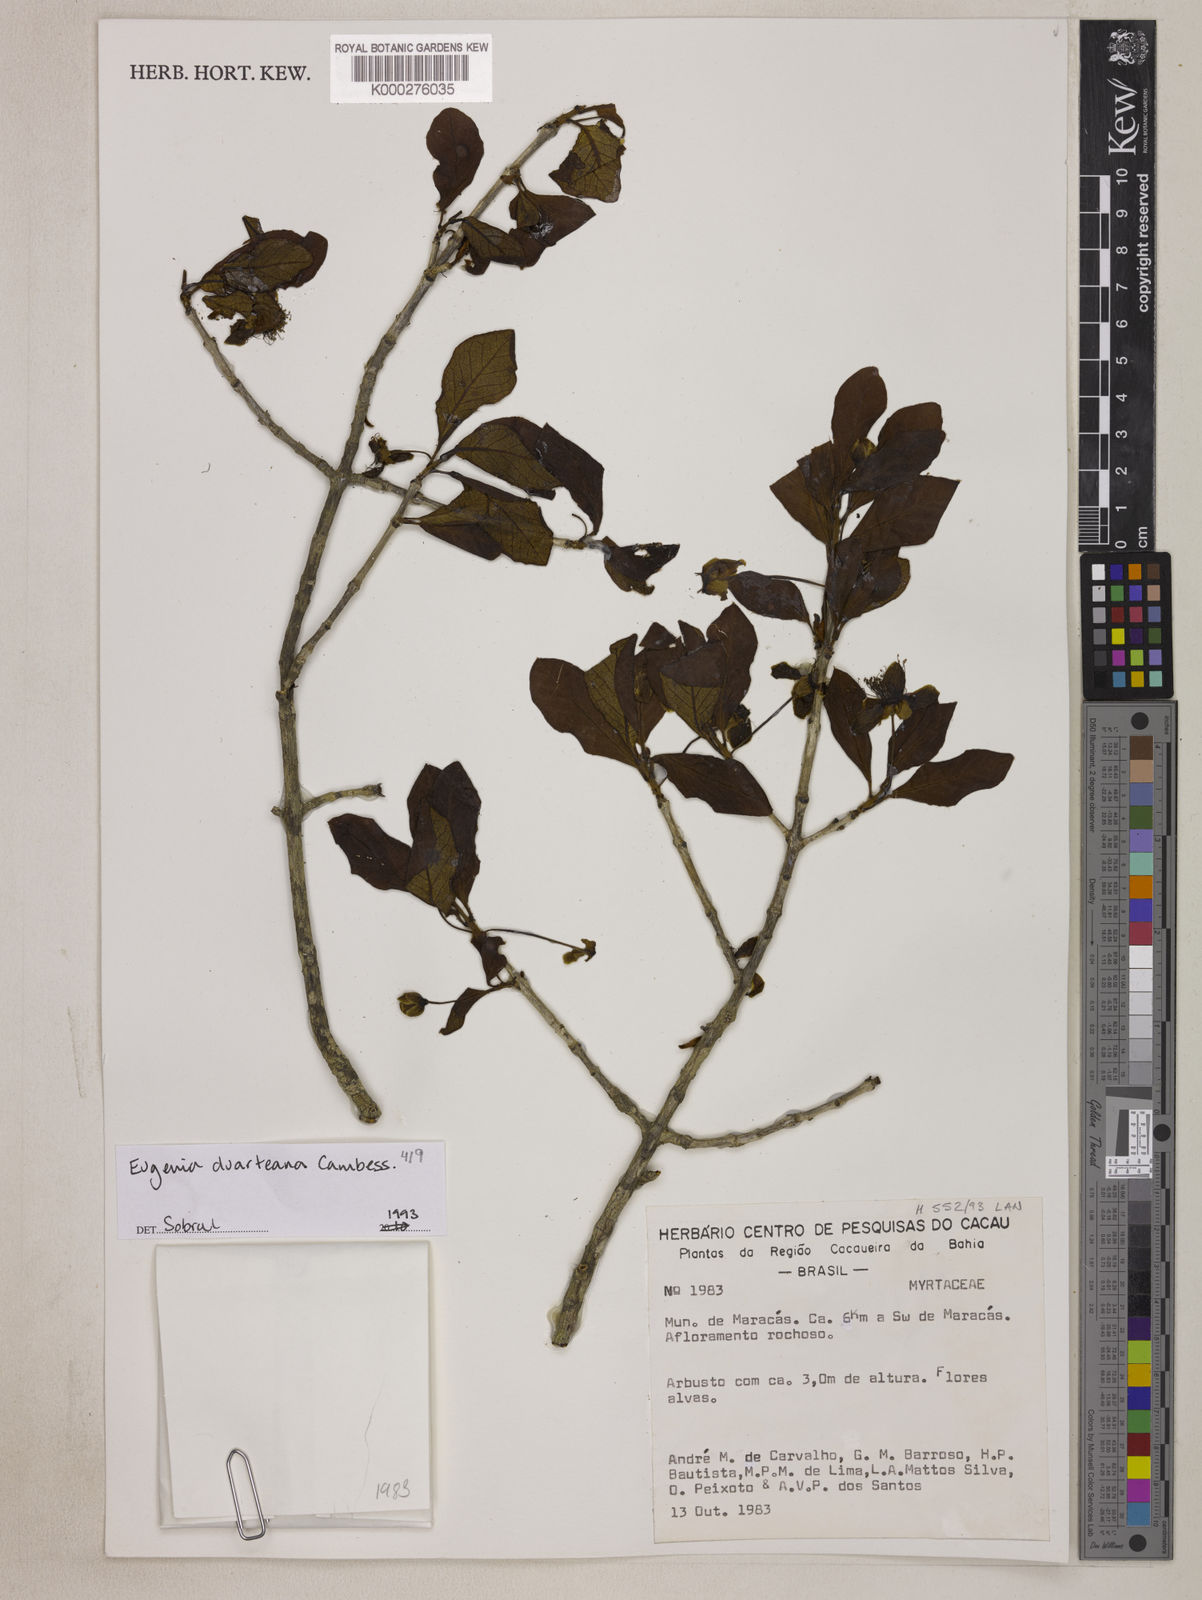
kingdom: Plantae
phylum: Tracheophyta
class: Magnoliopsida
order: Myrtales
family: Myrtaceae
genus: Eugenia
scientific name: Eugenia duarteana
